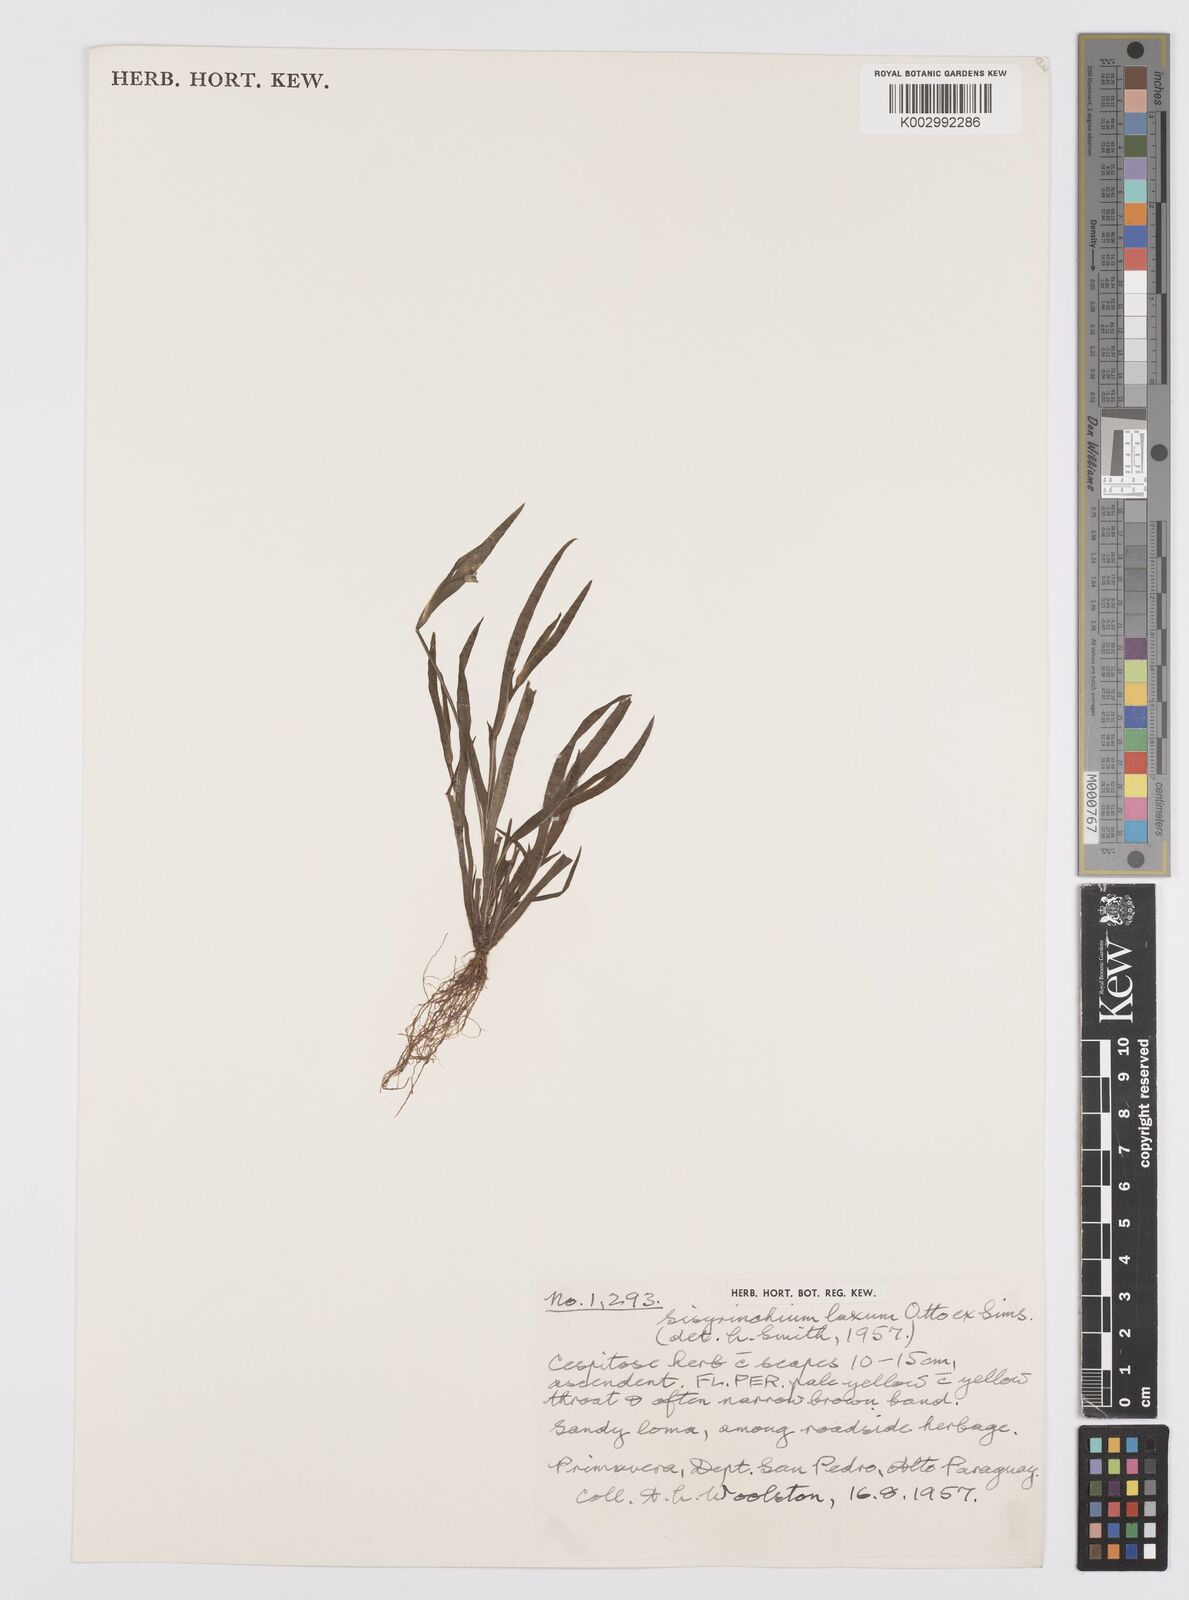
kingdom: Plantae
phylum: Tracheophyta
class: Liliopsida
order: Asparagales
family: Iridaceae
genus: Sisyrinchium
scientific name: Sisyrinchium micranthum
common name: Bermuda pigroot
